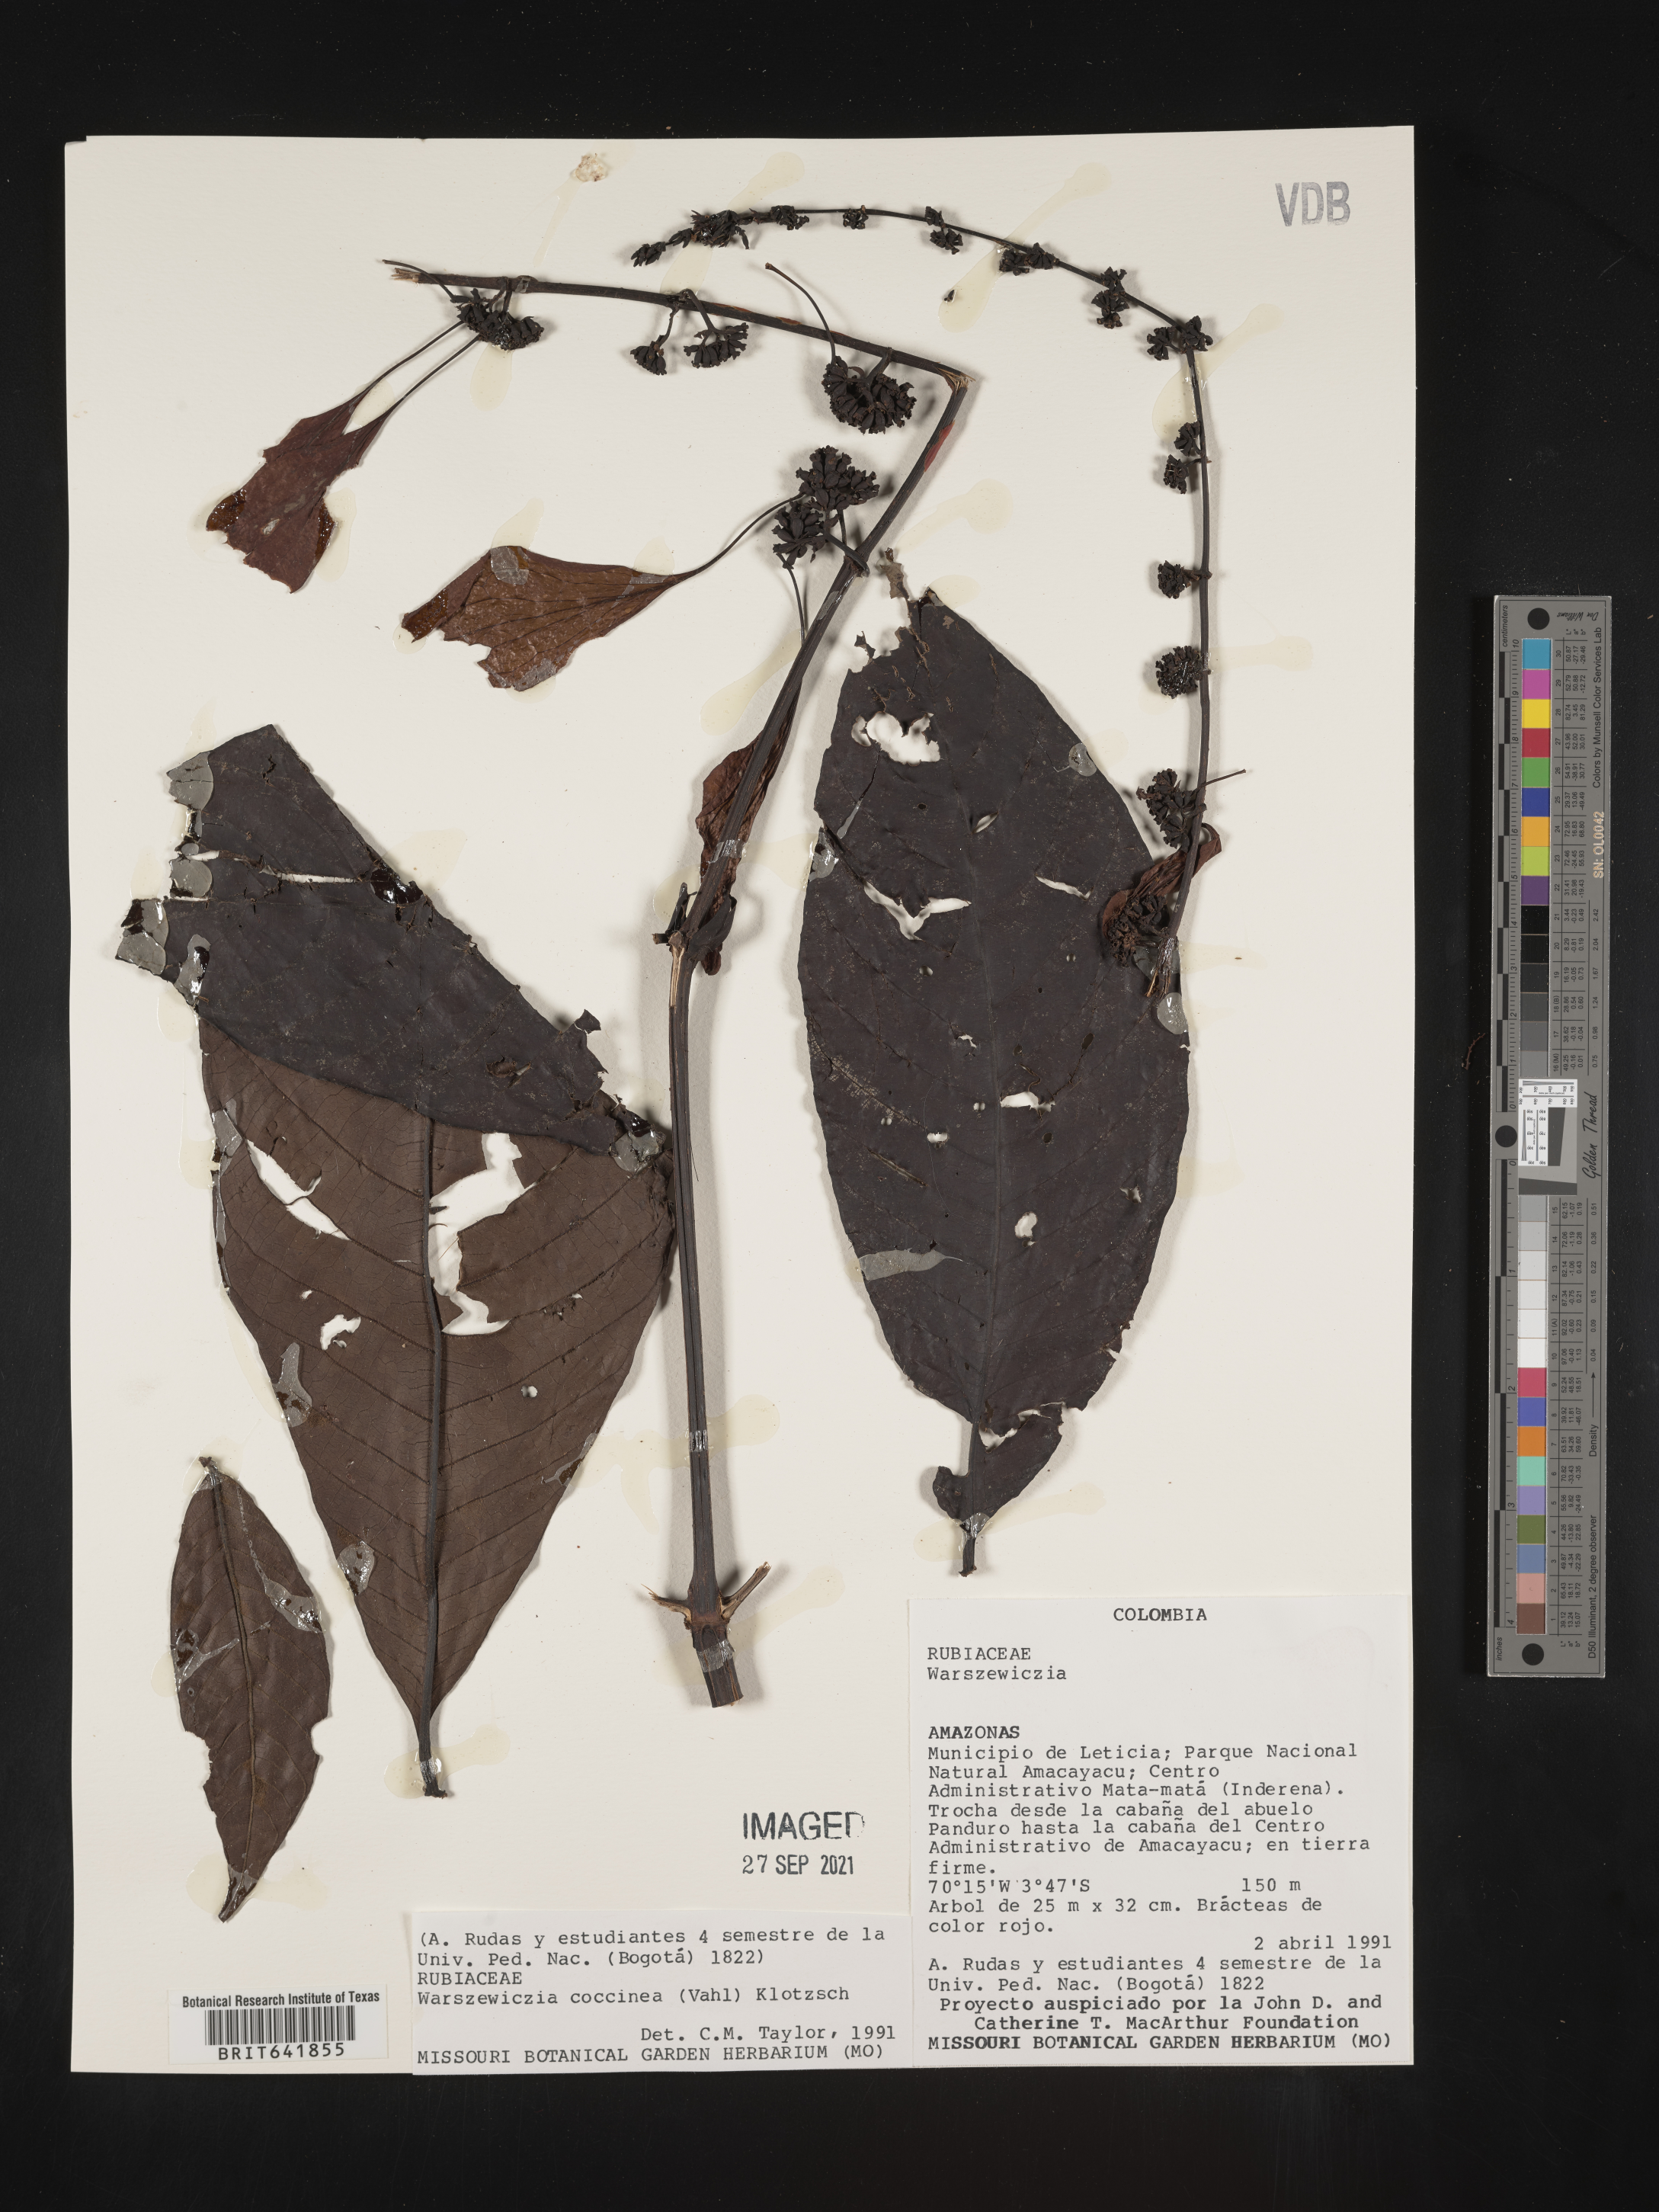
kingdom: Plantae
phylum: Tracheophyta
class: Magnoliopsida
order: Gentianales
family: Rubiaceae
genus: Warszewiczia
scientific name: Warszewiczia
